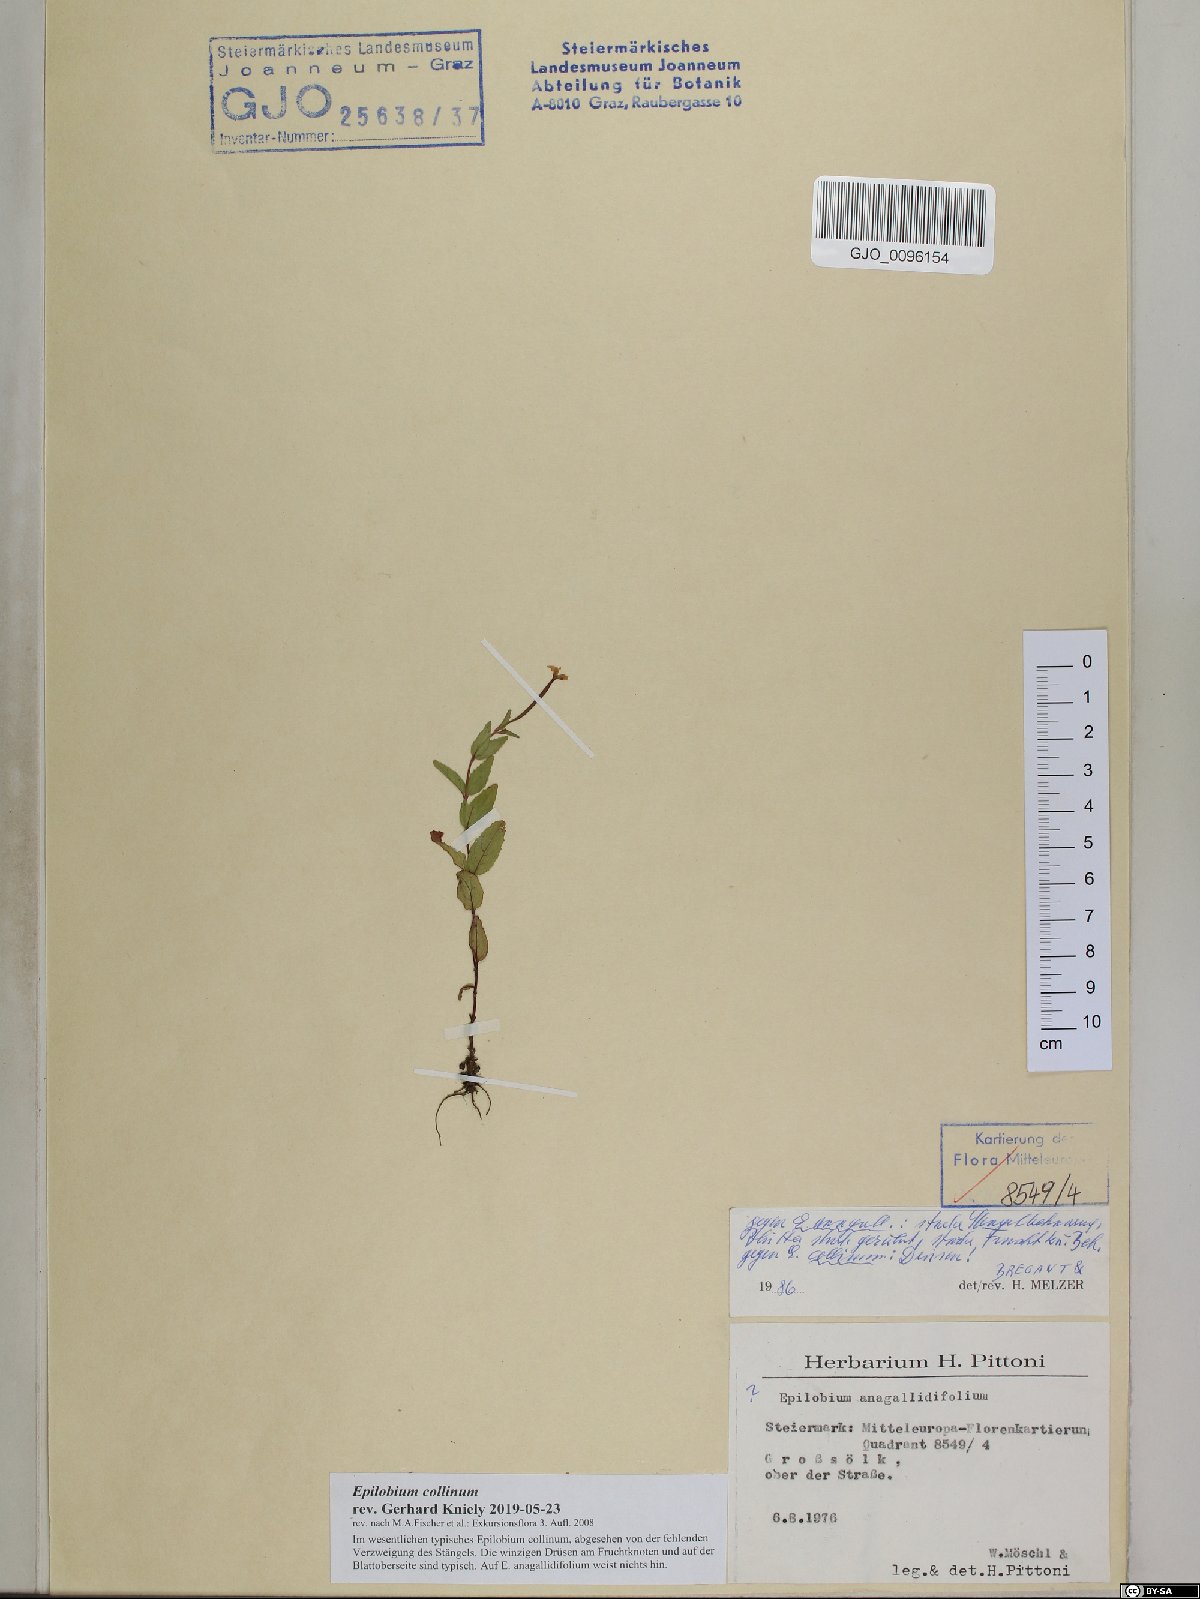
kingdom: Plantae
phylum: Tracheophyta
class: Magnoliopsida
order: Myrtales
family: Onagraceae
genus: Epilobium
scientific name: Epilobium collinum
